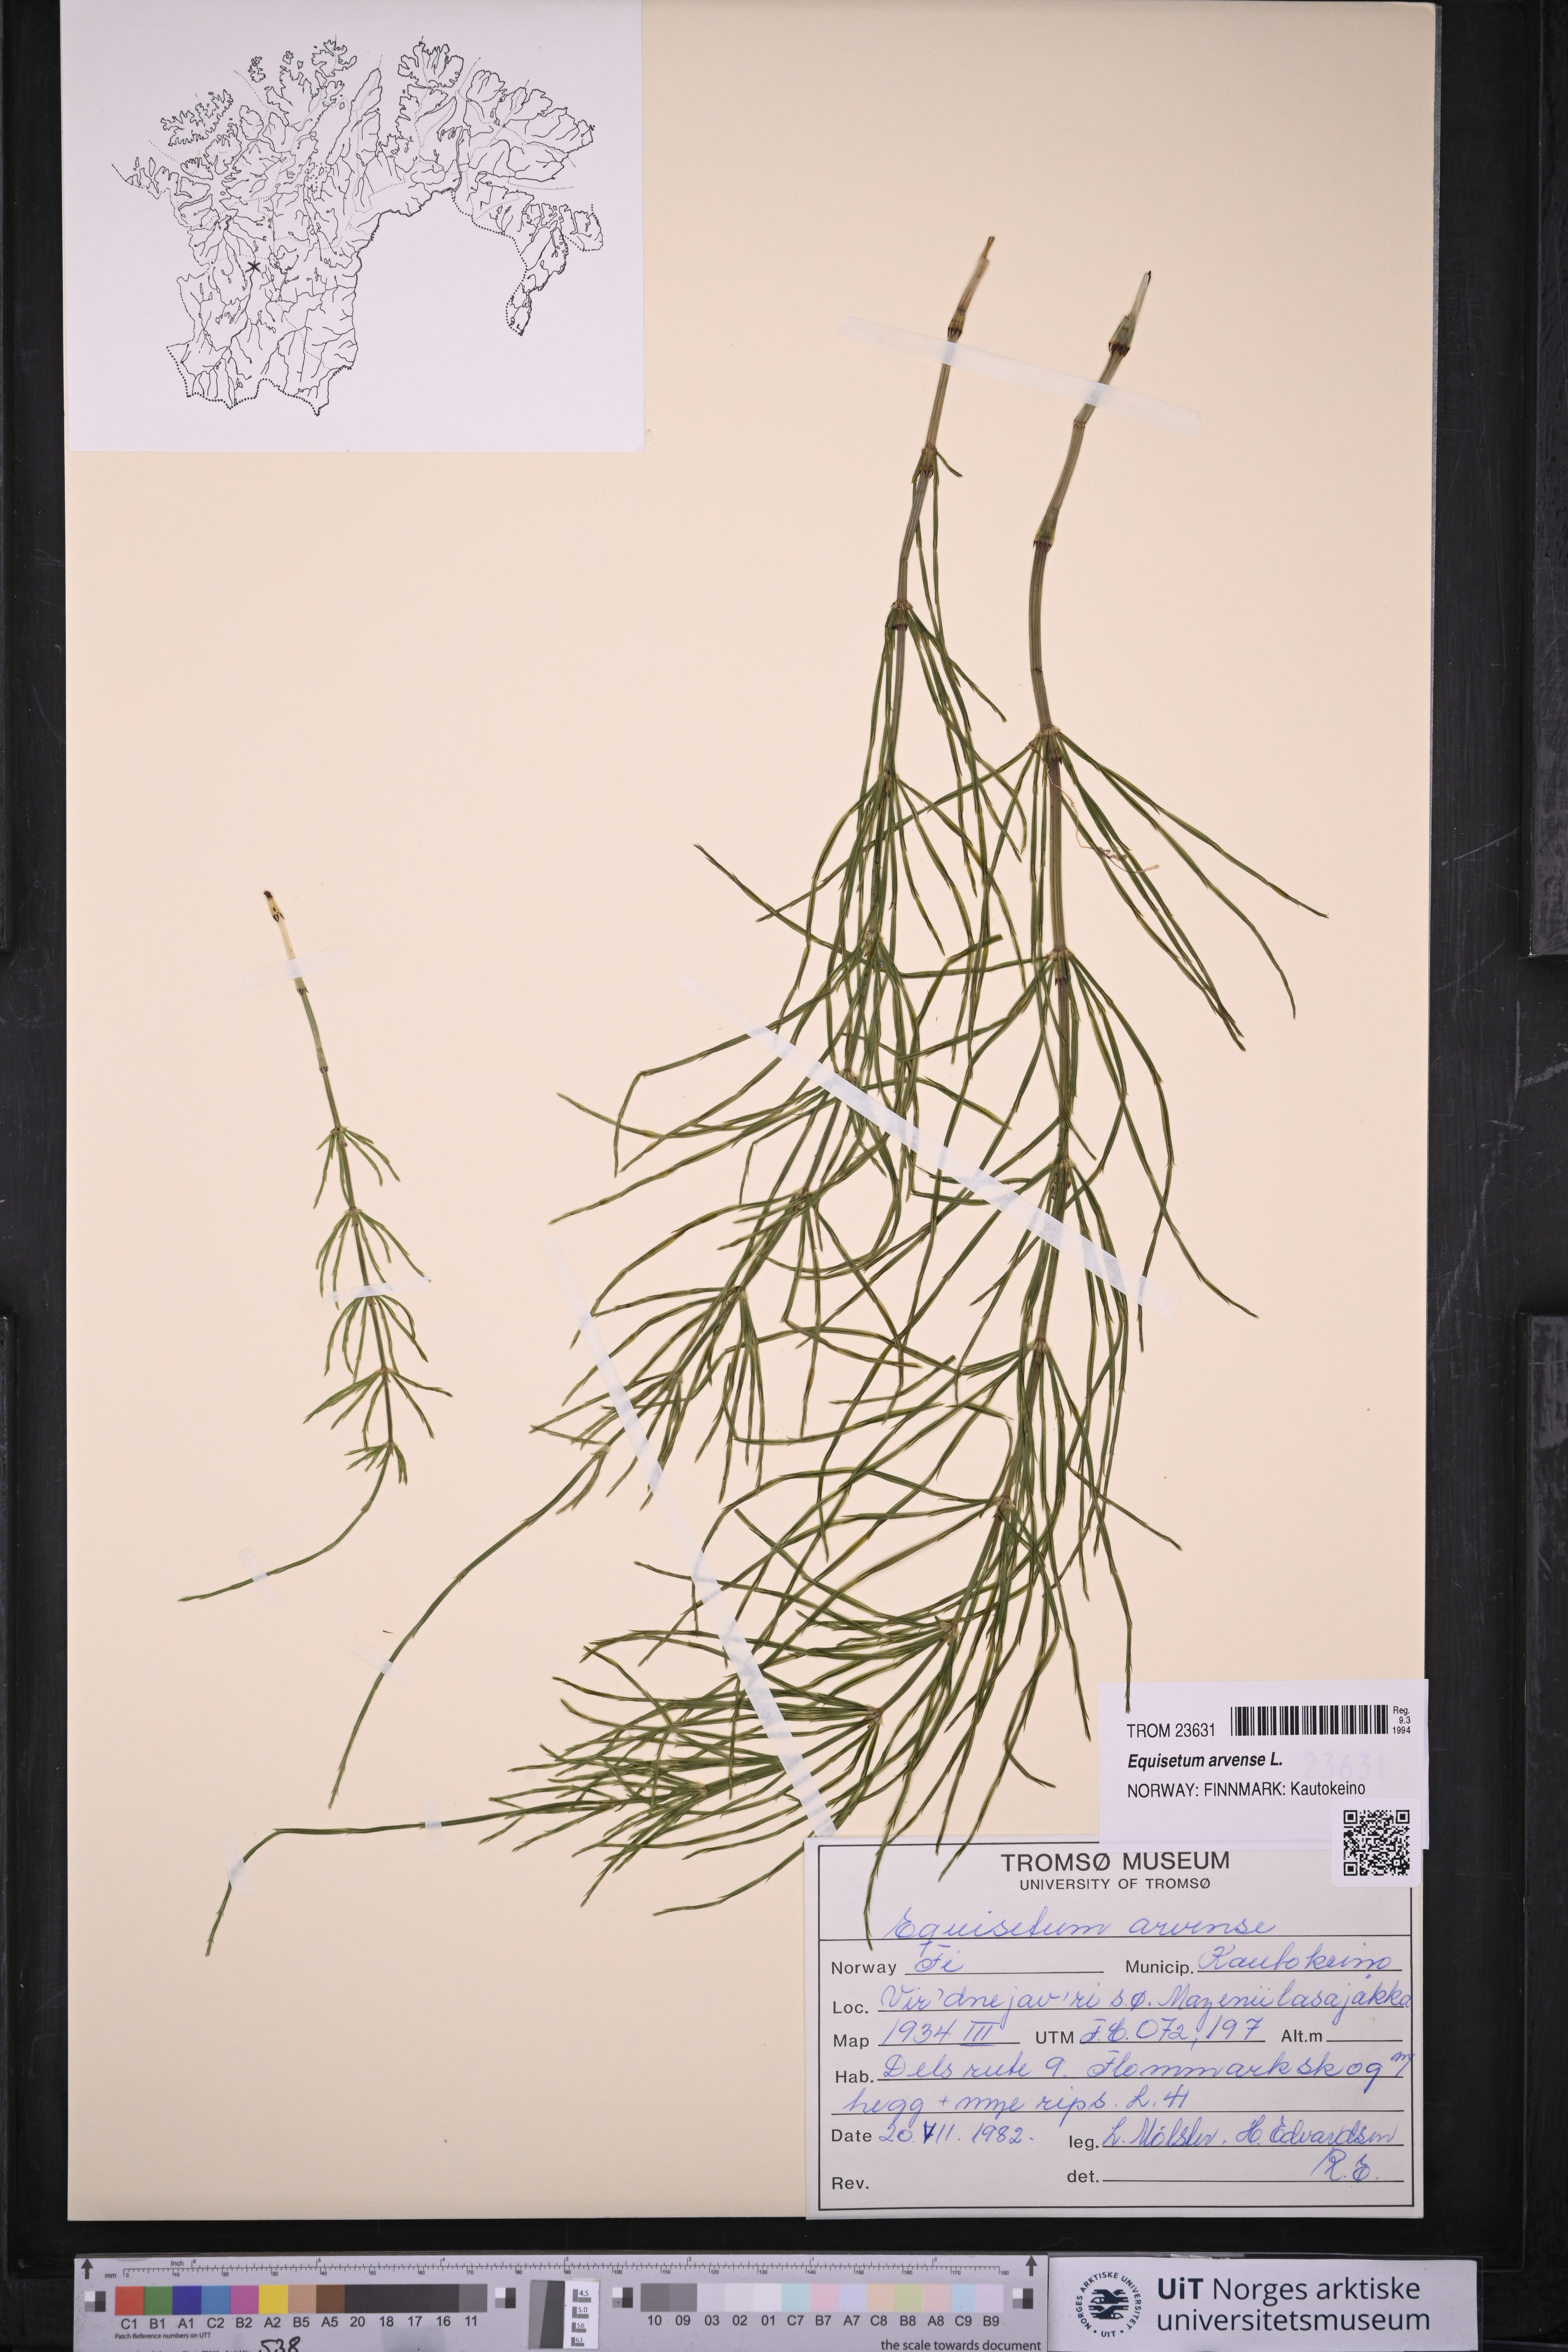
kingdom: Plantae
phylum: Tracheophyta
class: Polypodiopsida
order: Equisetales
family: Equisetaceae
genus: Equisetum
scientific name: Equisetum arvense
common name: Field horsetail
